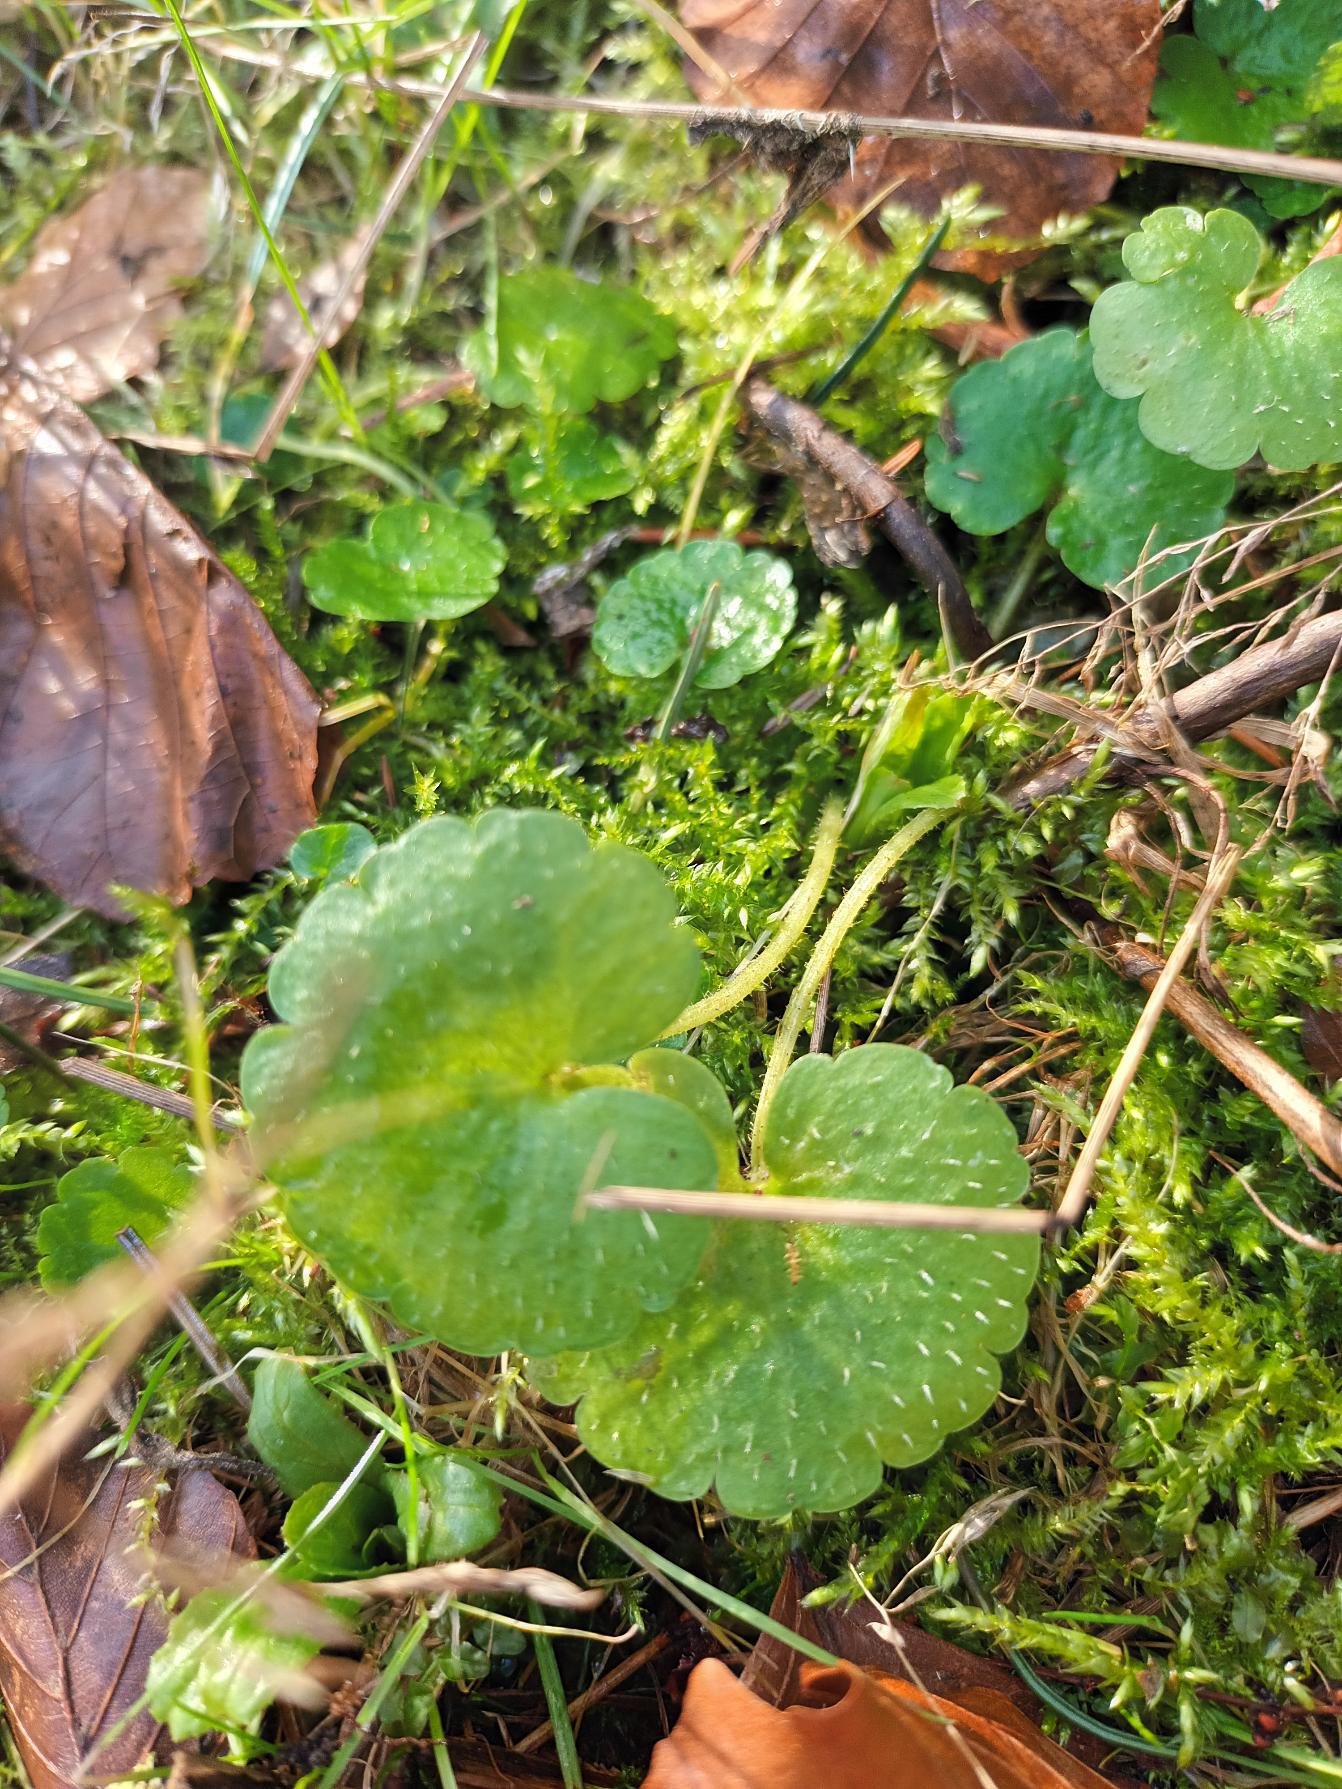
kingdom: Plantae
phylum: Tracheophyta
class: Magnoliopsida
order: Saxifragales
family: Saxifragaceae
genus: Chrysosplenium
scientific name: Chrysosplenium alternifolium
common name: Almindelig milturt
